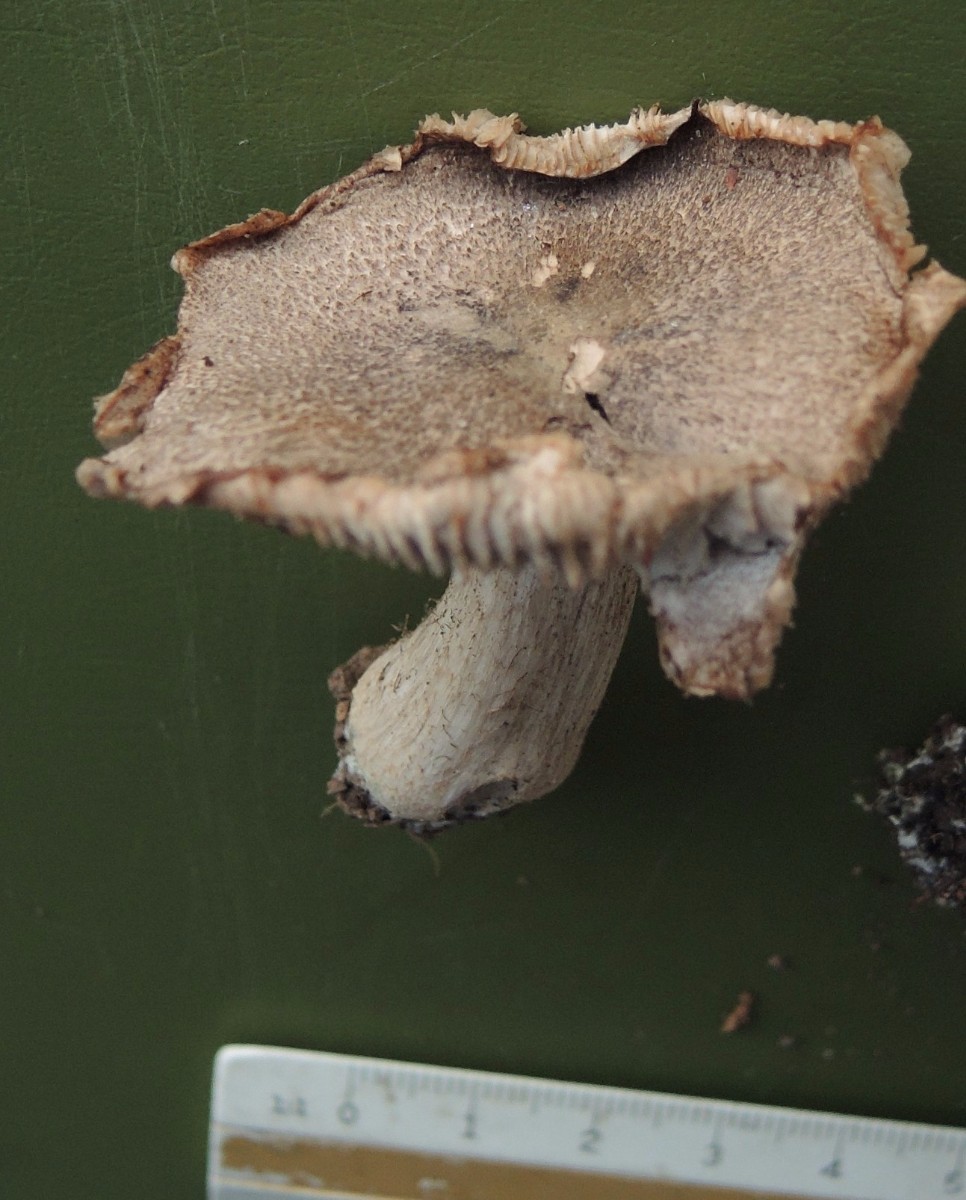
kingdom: Fungi
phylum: Basidiomycota
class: Agaricomycetes
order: Agaricales
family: Tricholomataceae
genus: Tricholoma
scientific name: Tricholoma orirubens
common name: rødbladet ridderhat
